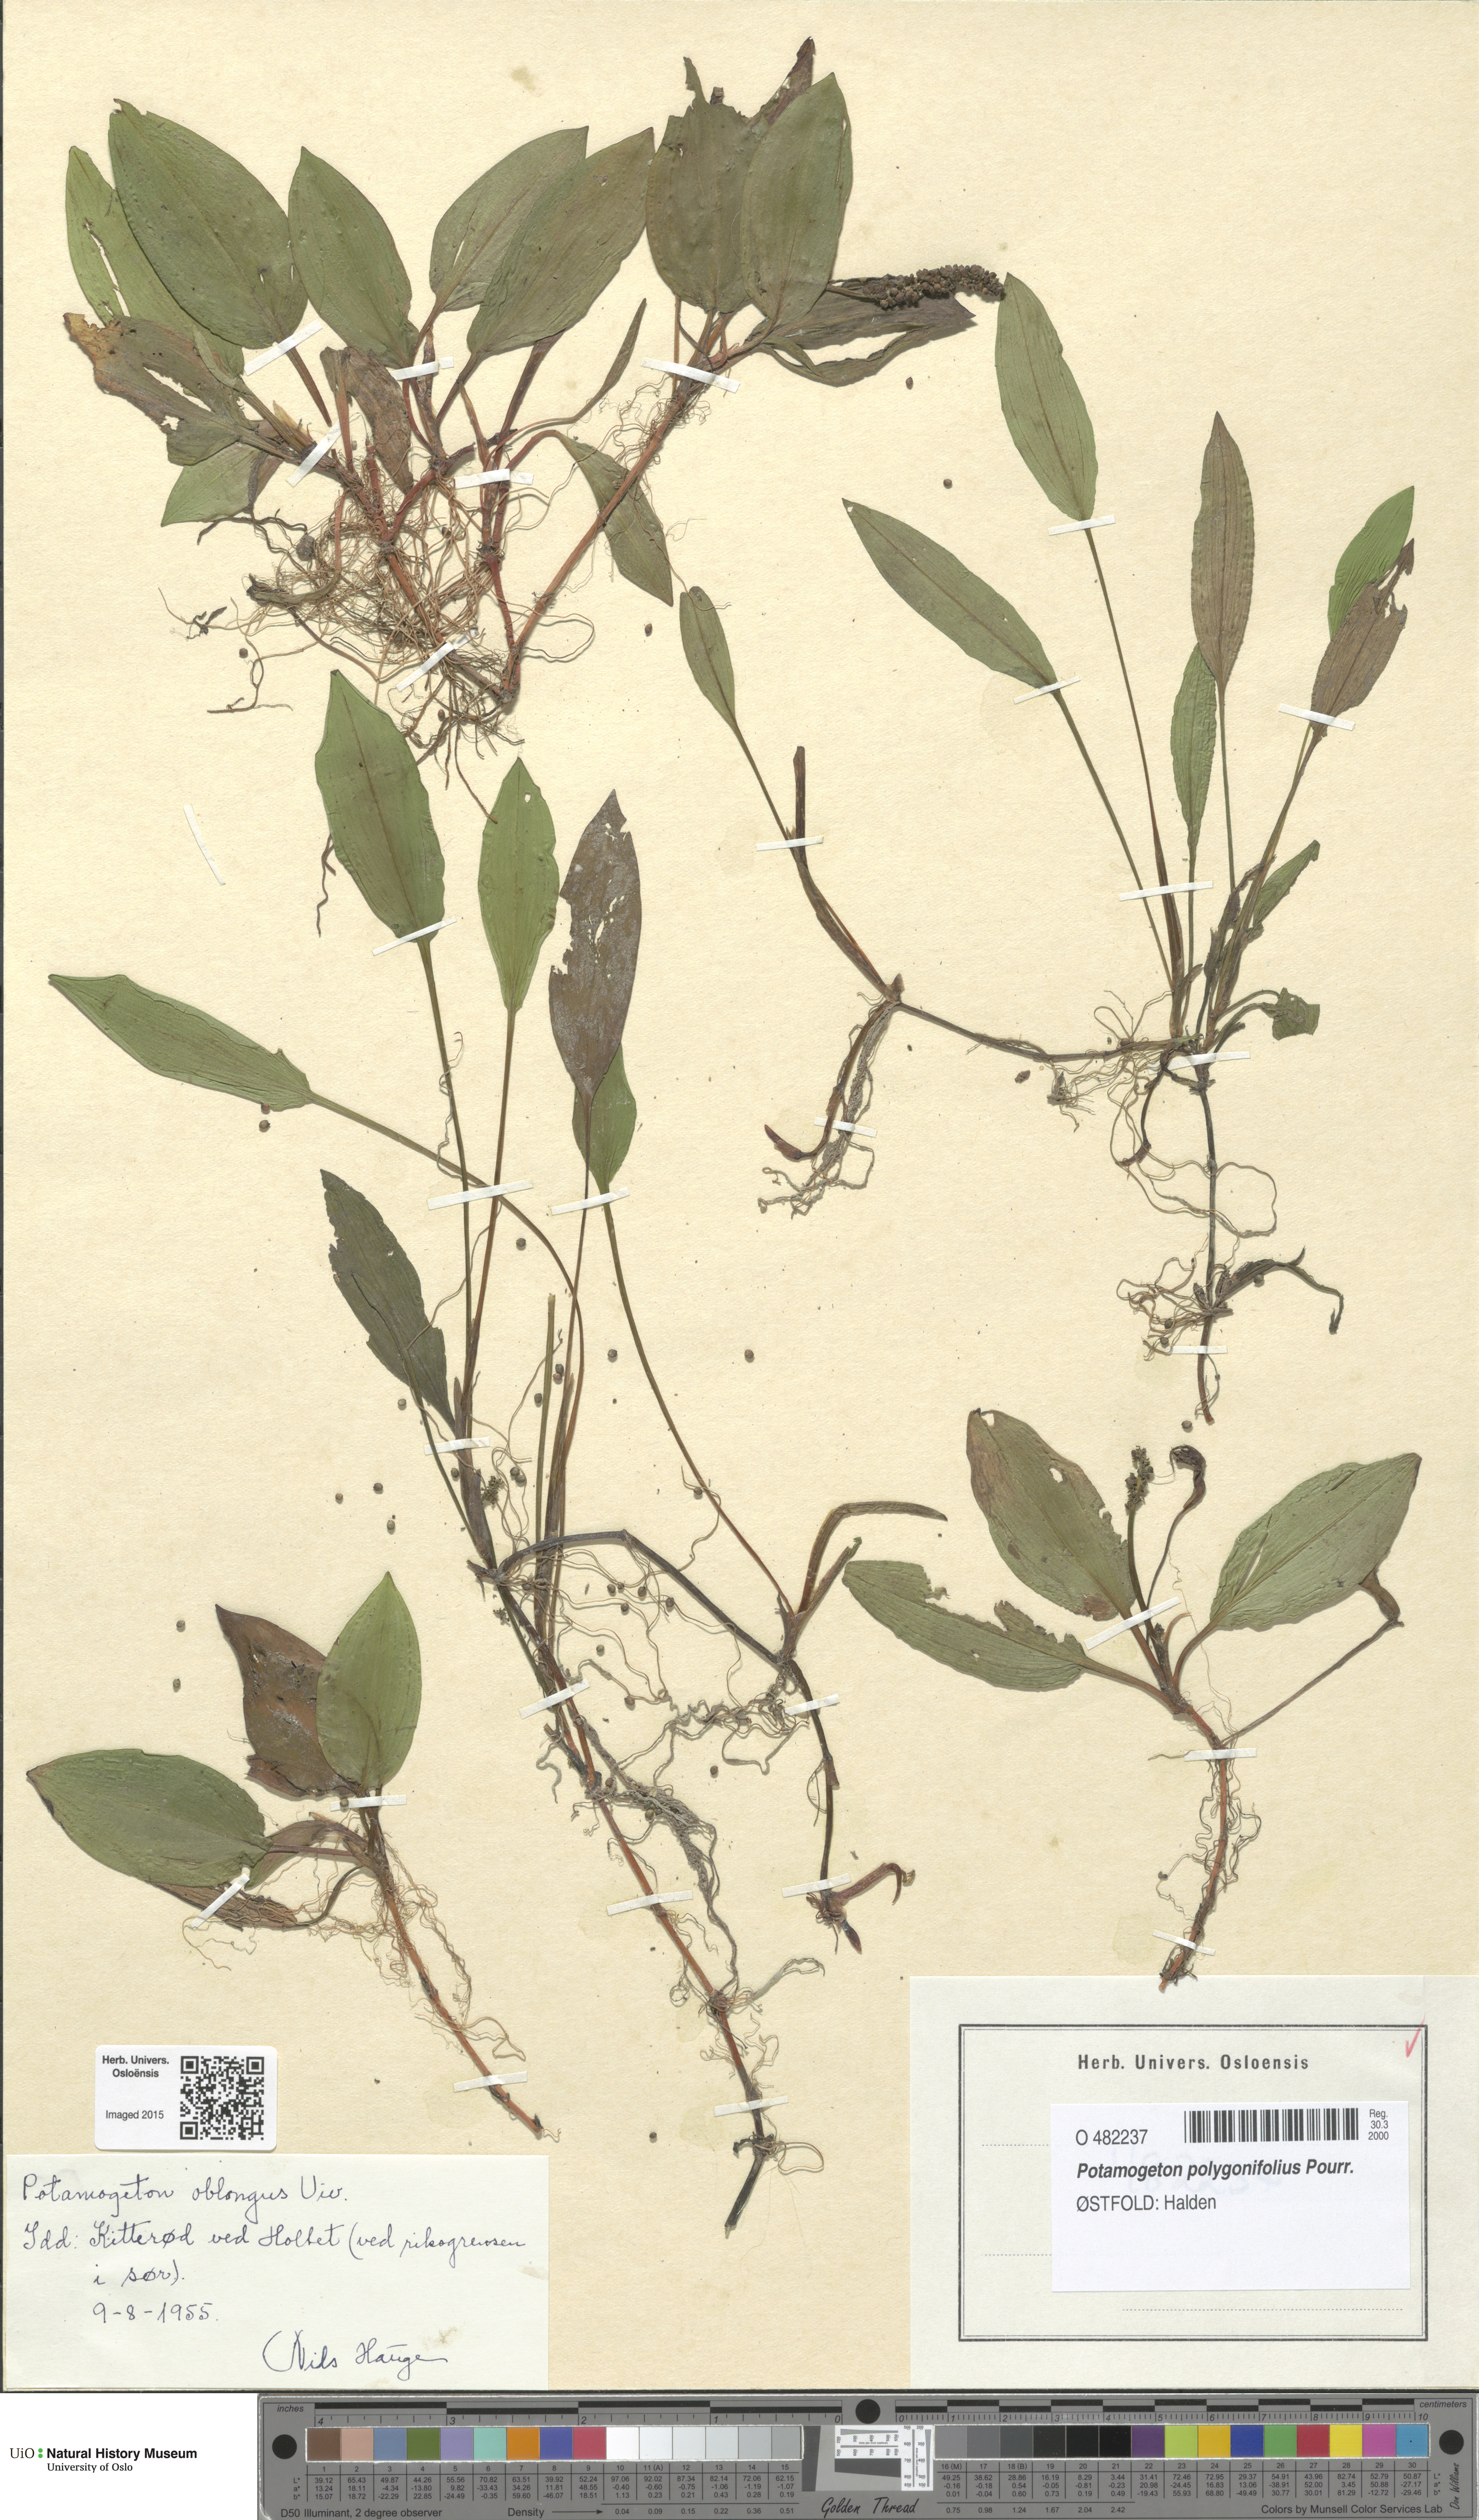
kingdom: Plantae
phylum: Tracheophyta
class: Liliopsida
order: Alismatales
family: Potamogetonaceae
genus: Potamogeton
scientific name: Potamogeton polygonifolius
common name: Bog pondweed
